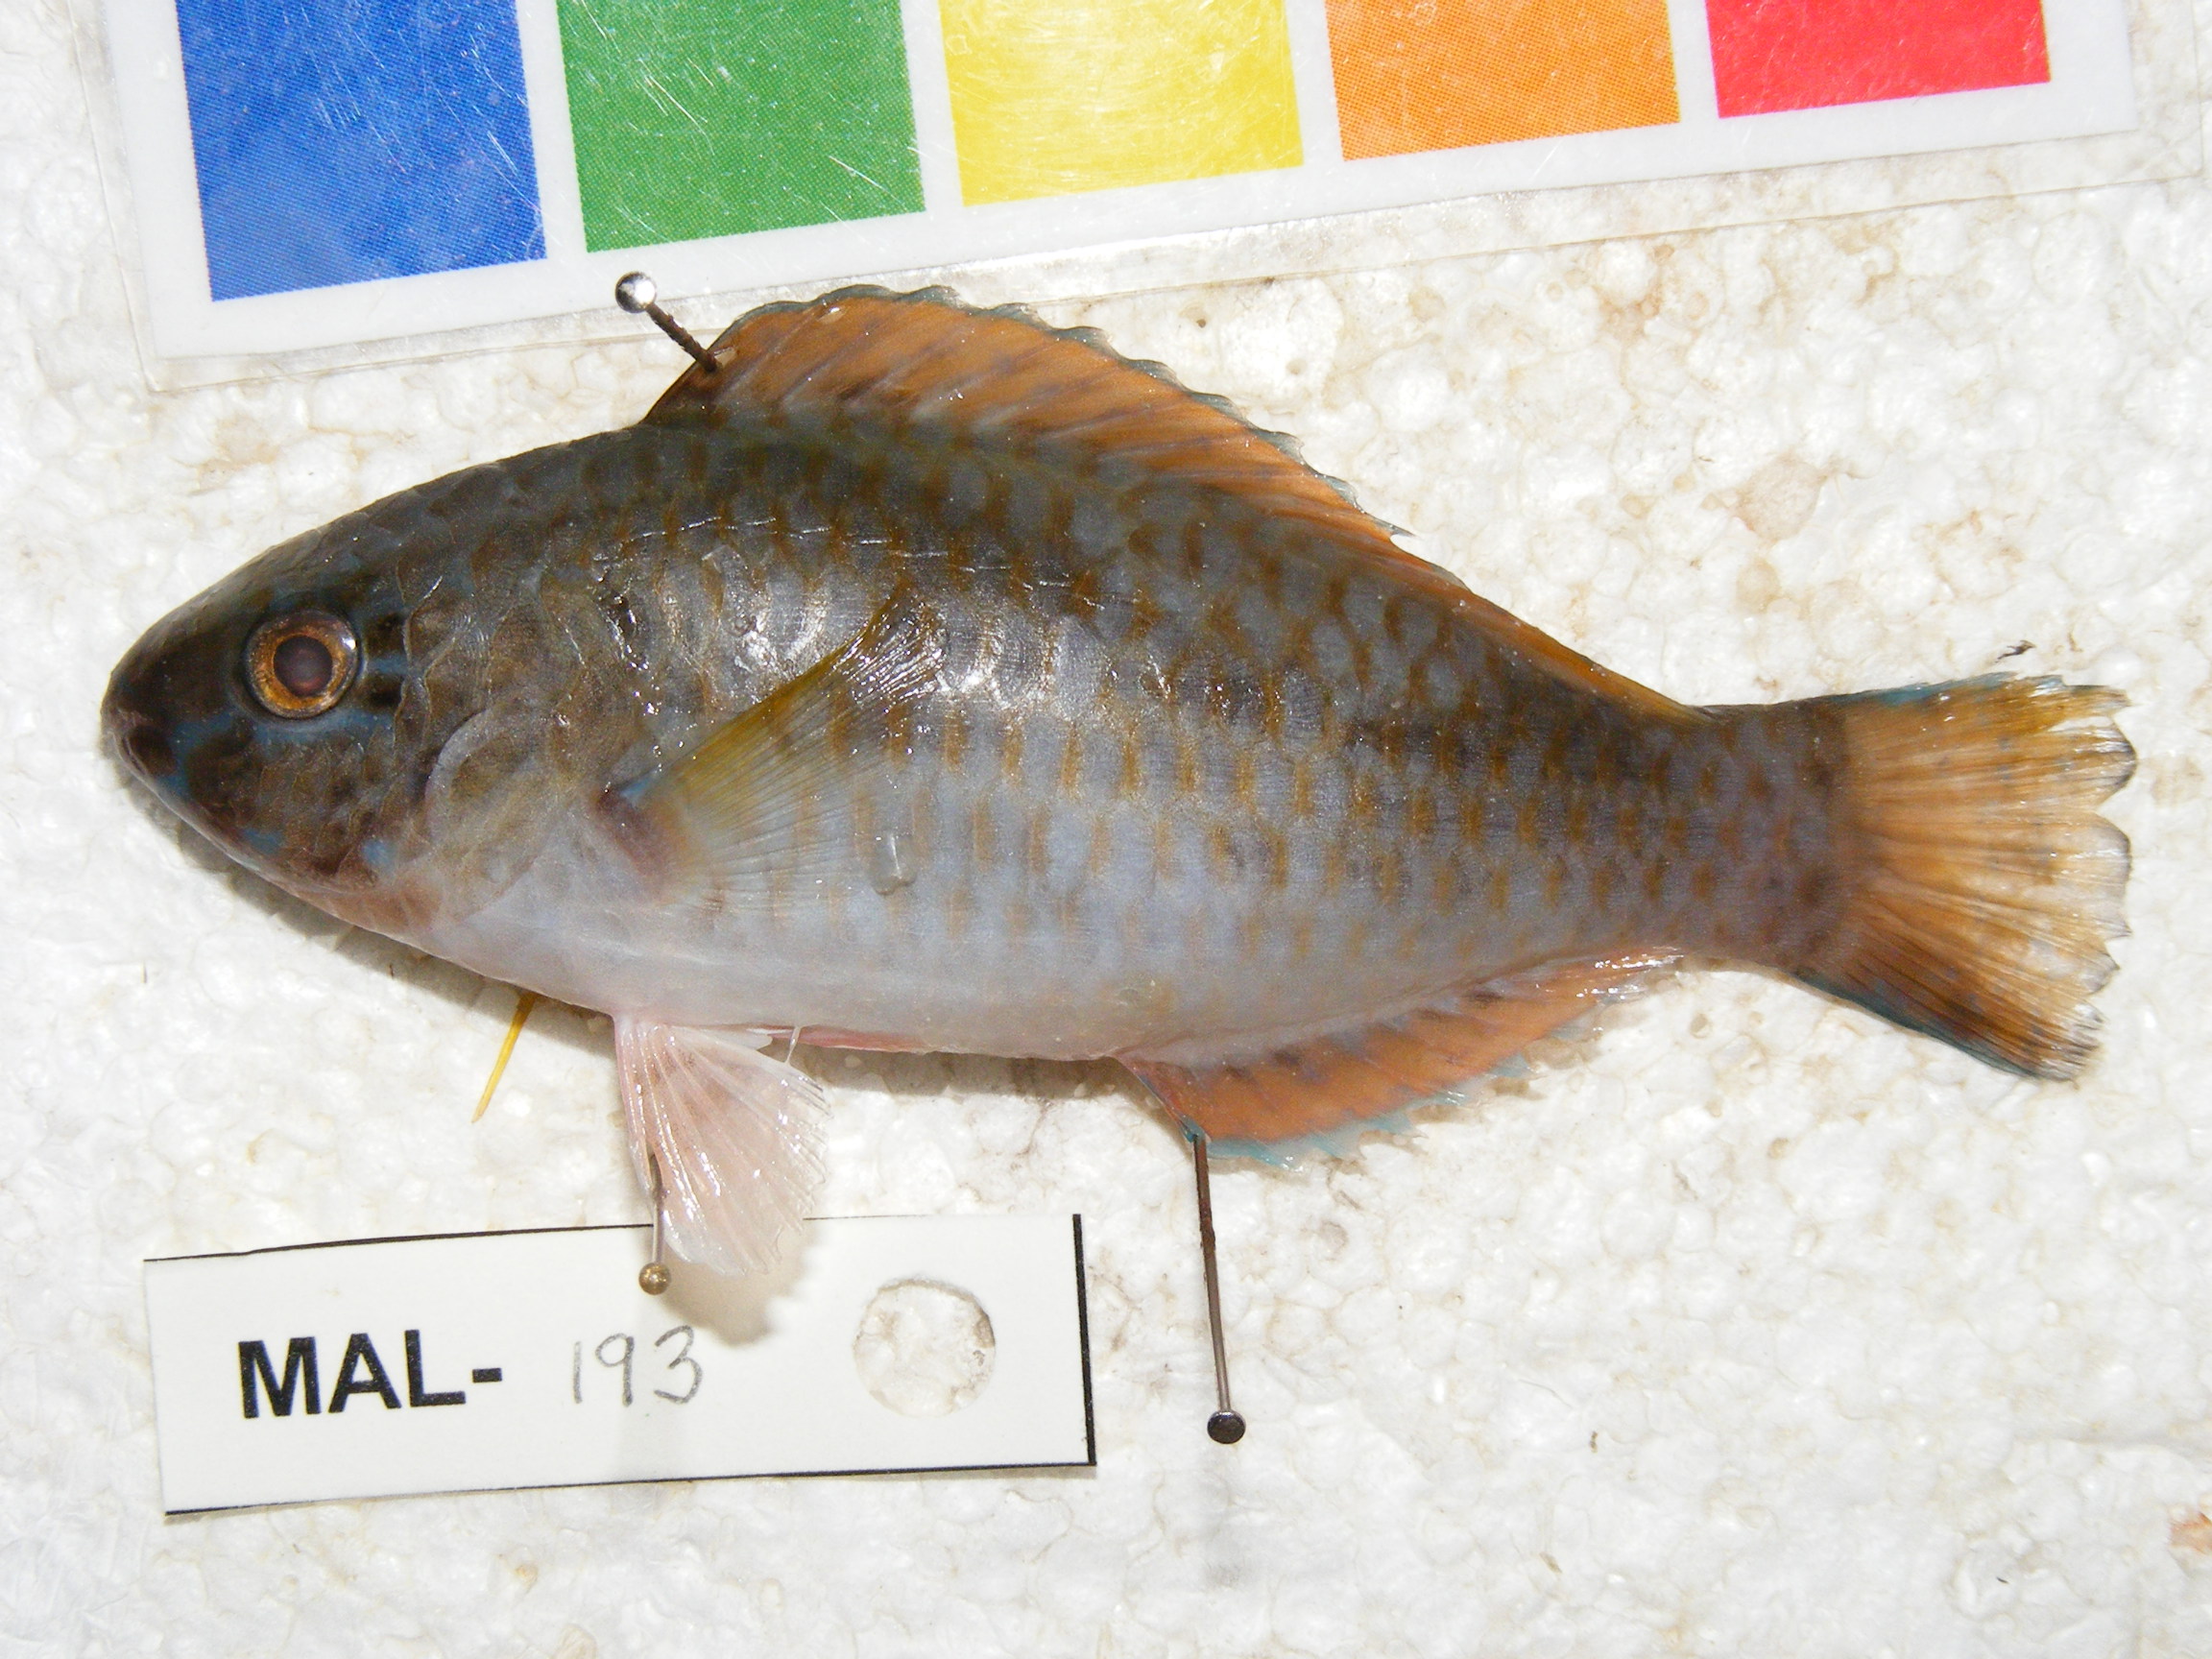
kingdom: Animalia
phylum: Chordata
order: Perciformes
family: Scaridae
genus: Scarus
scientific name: Scarus
